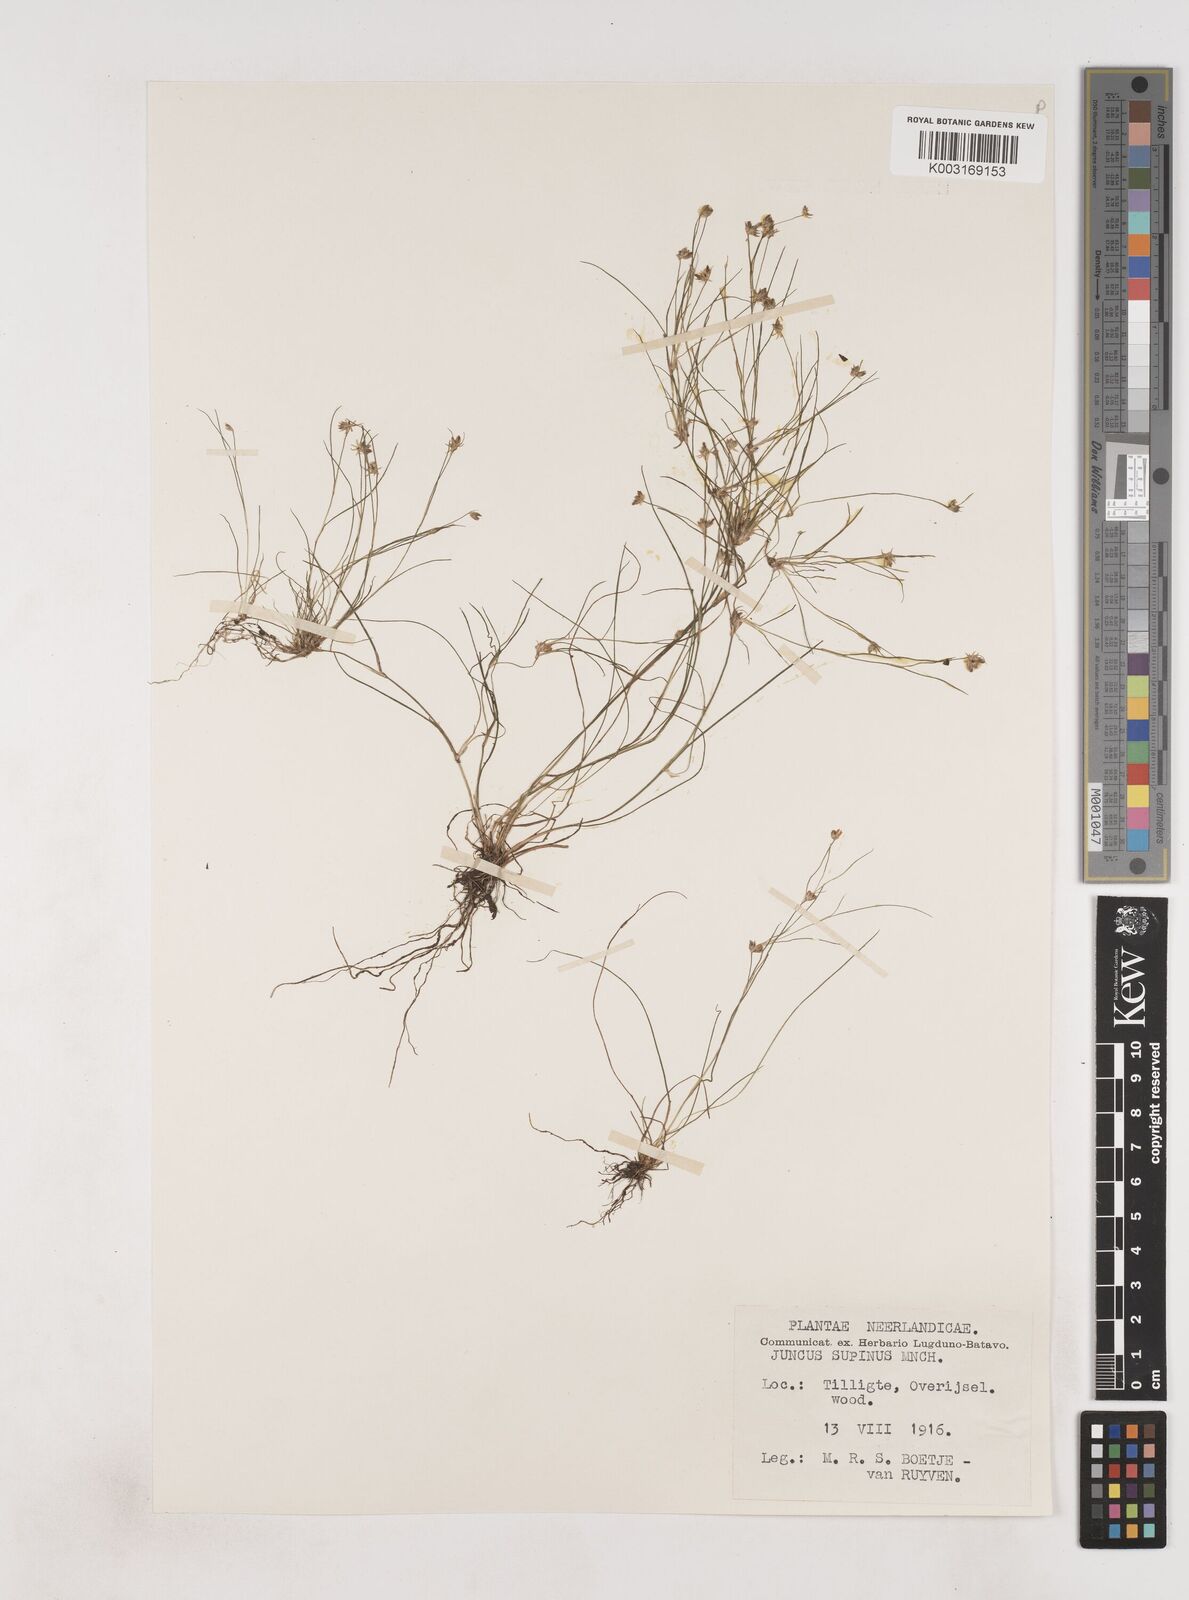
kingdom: Plantae
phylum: Tracheophyta
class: Liliopsida
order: Poales
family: Juncaceae
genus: Juncus
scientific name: Juncus bulbosus
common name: Bulbous rush
